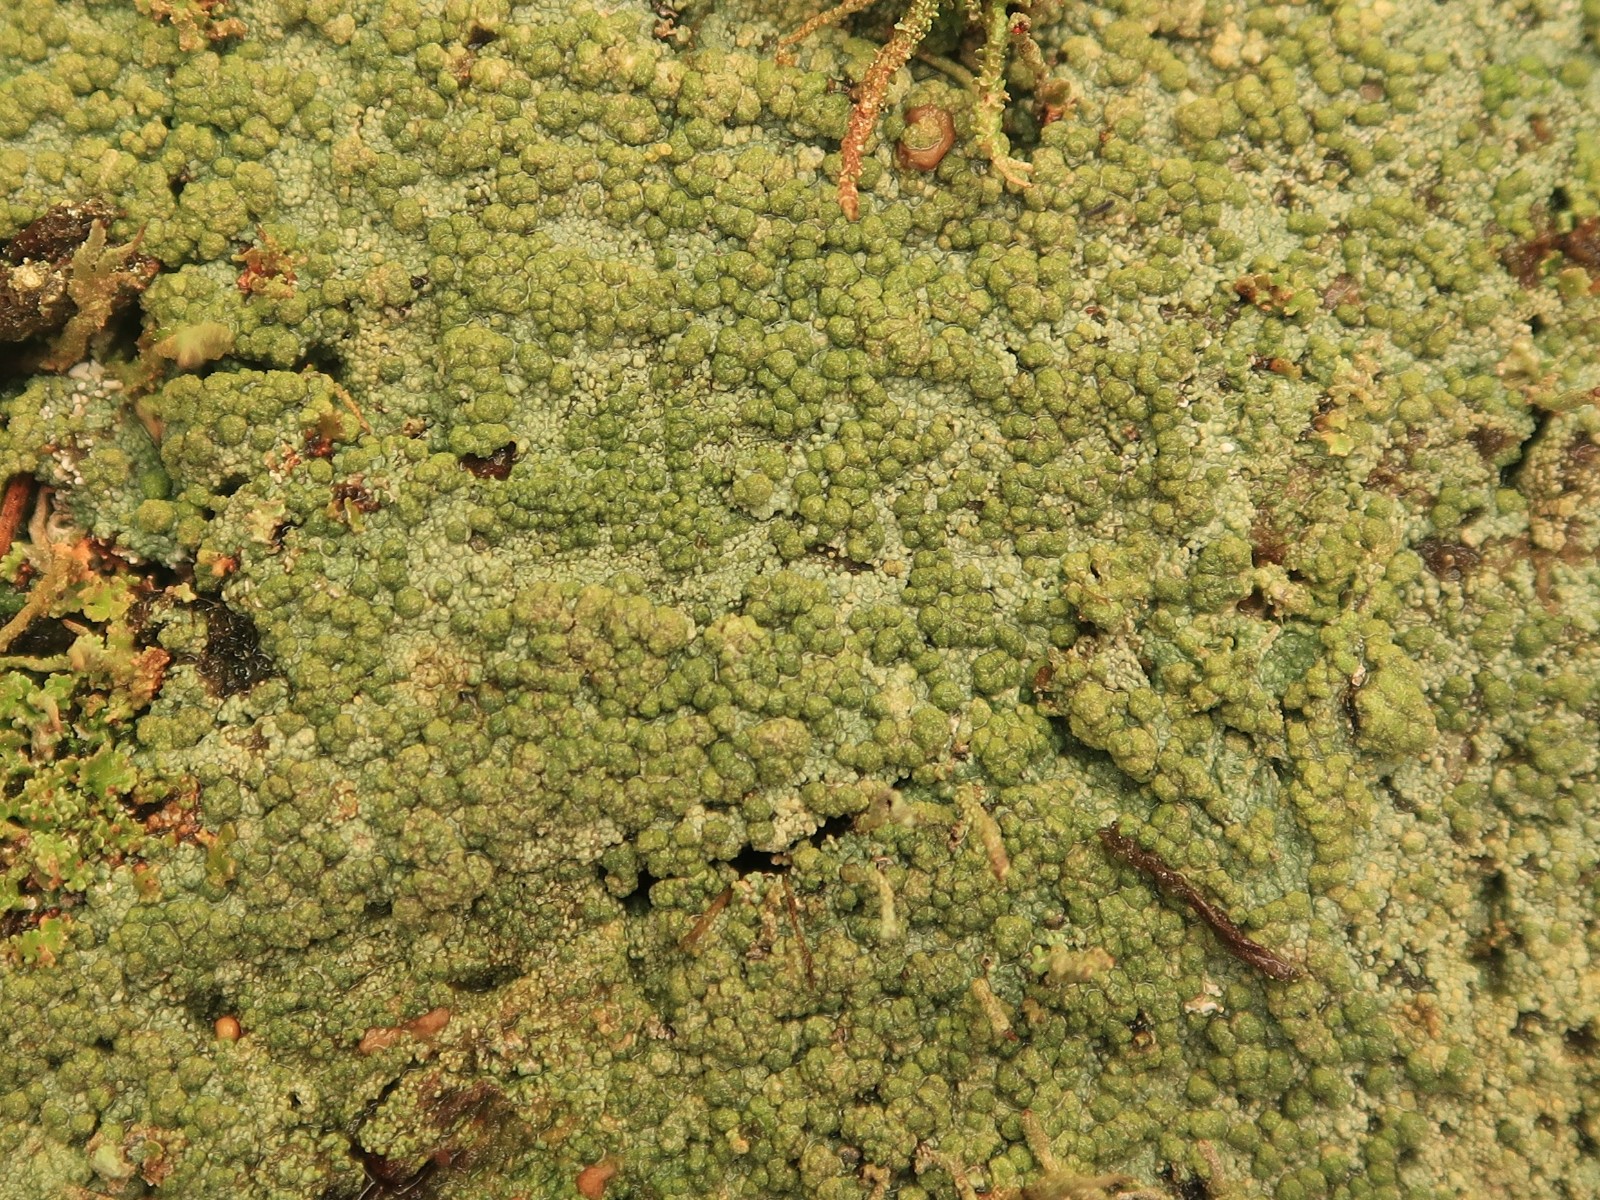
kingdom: Fungi
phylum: Ascomycota
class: Lecanoromycetes
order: Baeomycetales
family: Trapeliaceae
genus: Trapeliopsis
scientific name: Trapeliopsis granulosa
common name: forskelligfarvet skivelav
